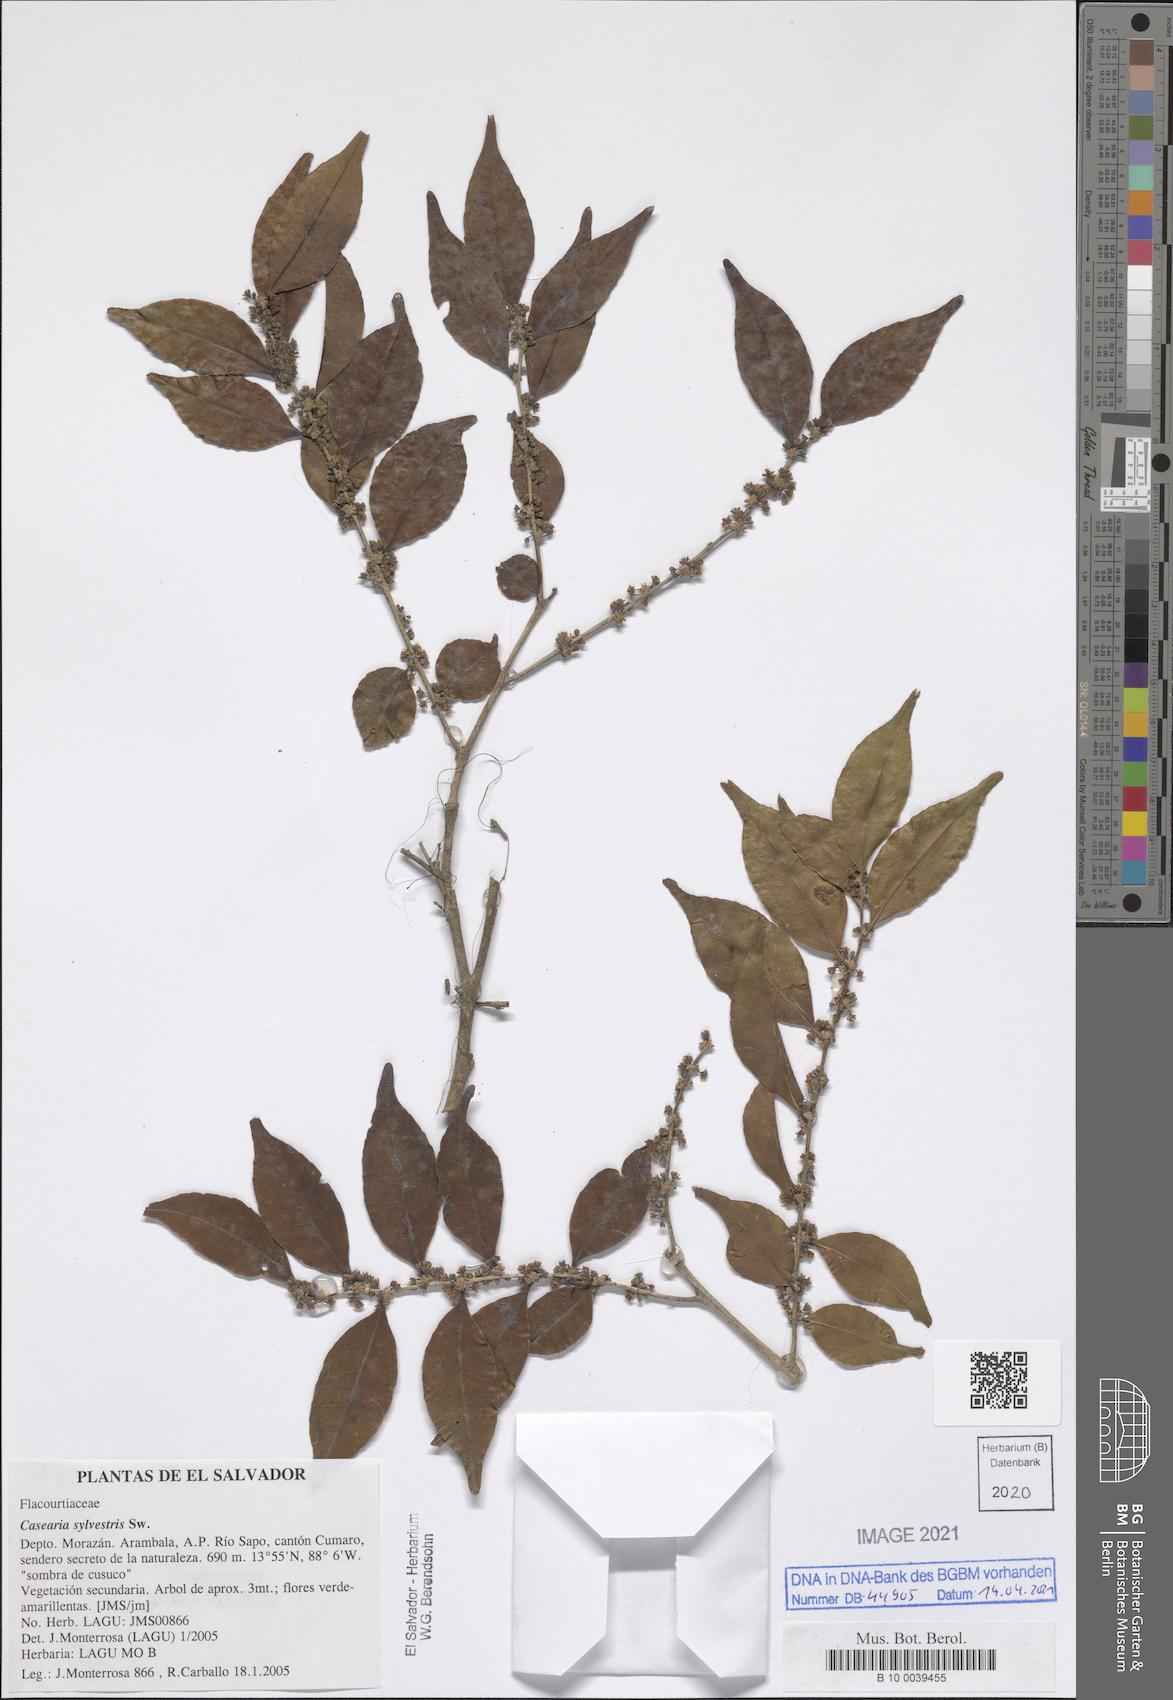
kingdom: Plantae
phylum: Tracheophyta
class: Magnoliopsida
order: Malpighiales
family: Salicaceae
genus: Casearia
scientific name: Casearia sylvestris
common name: Wild sage
